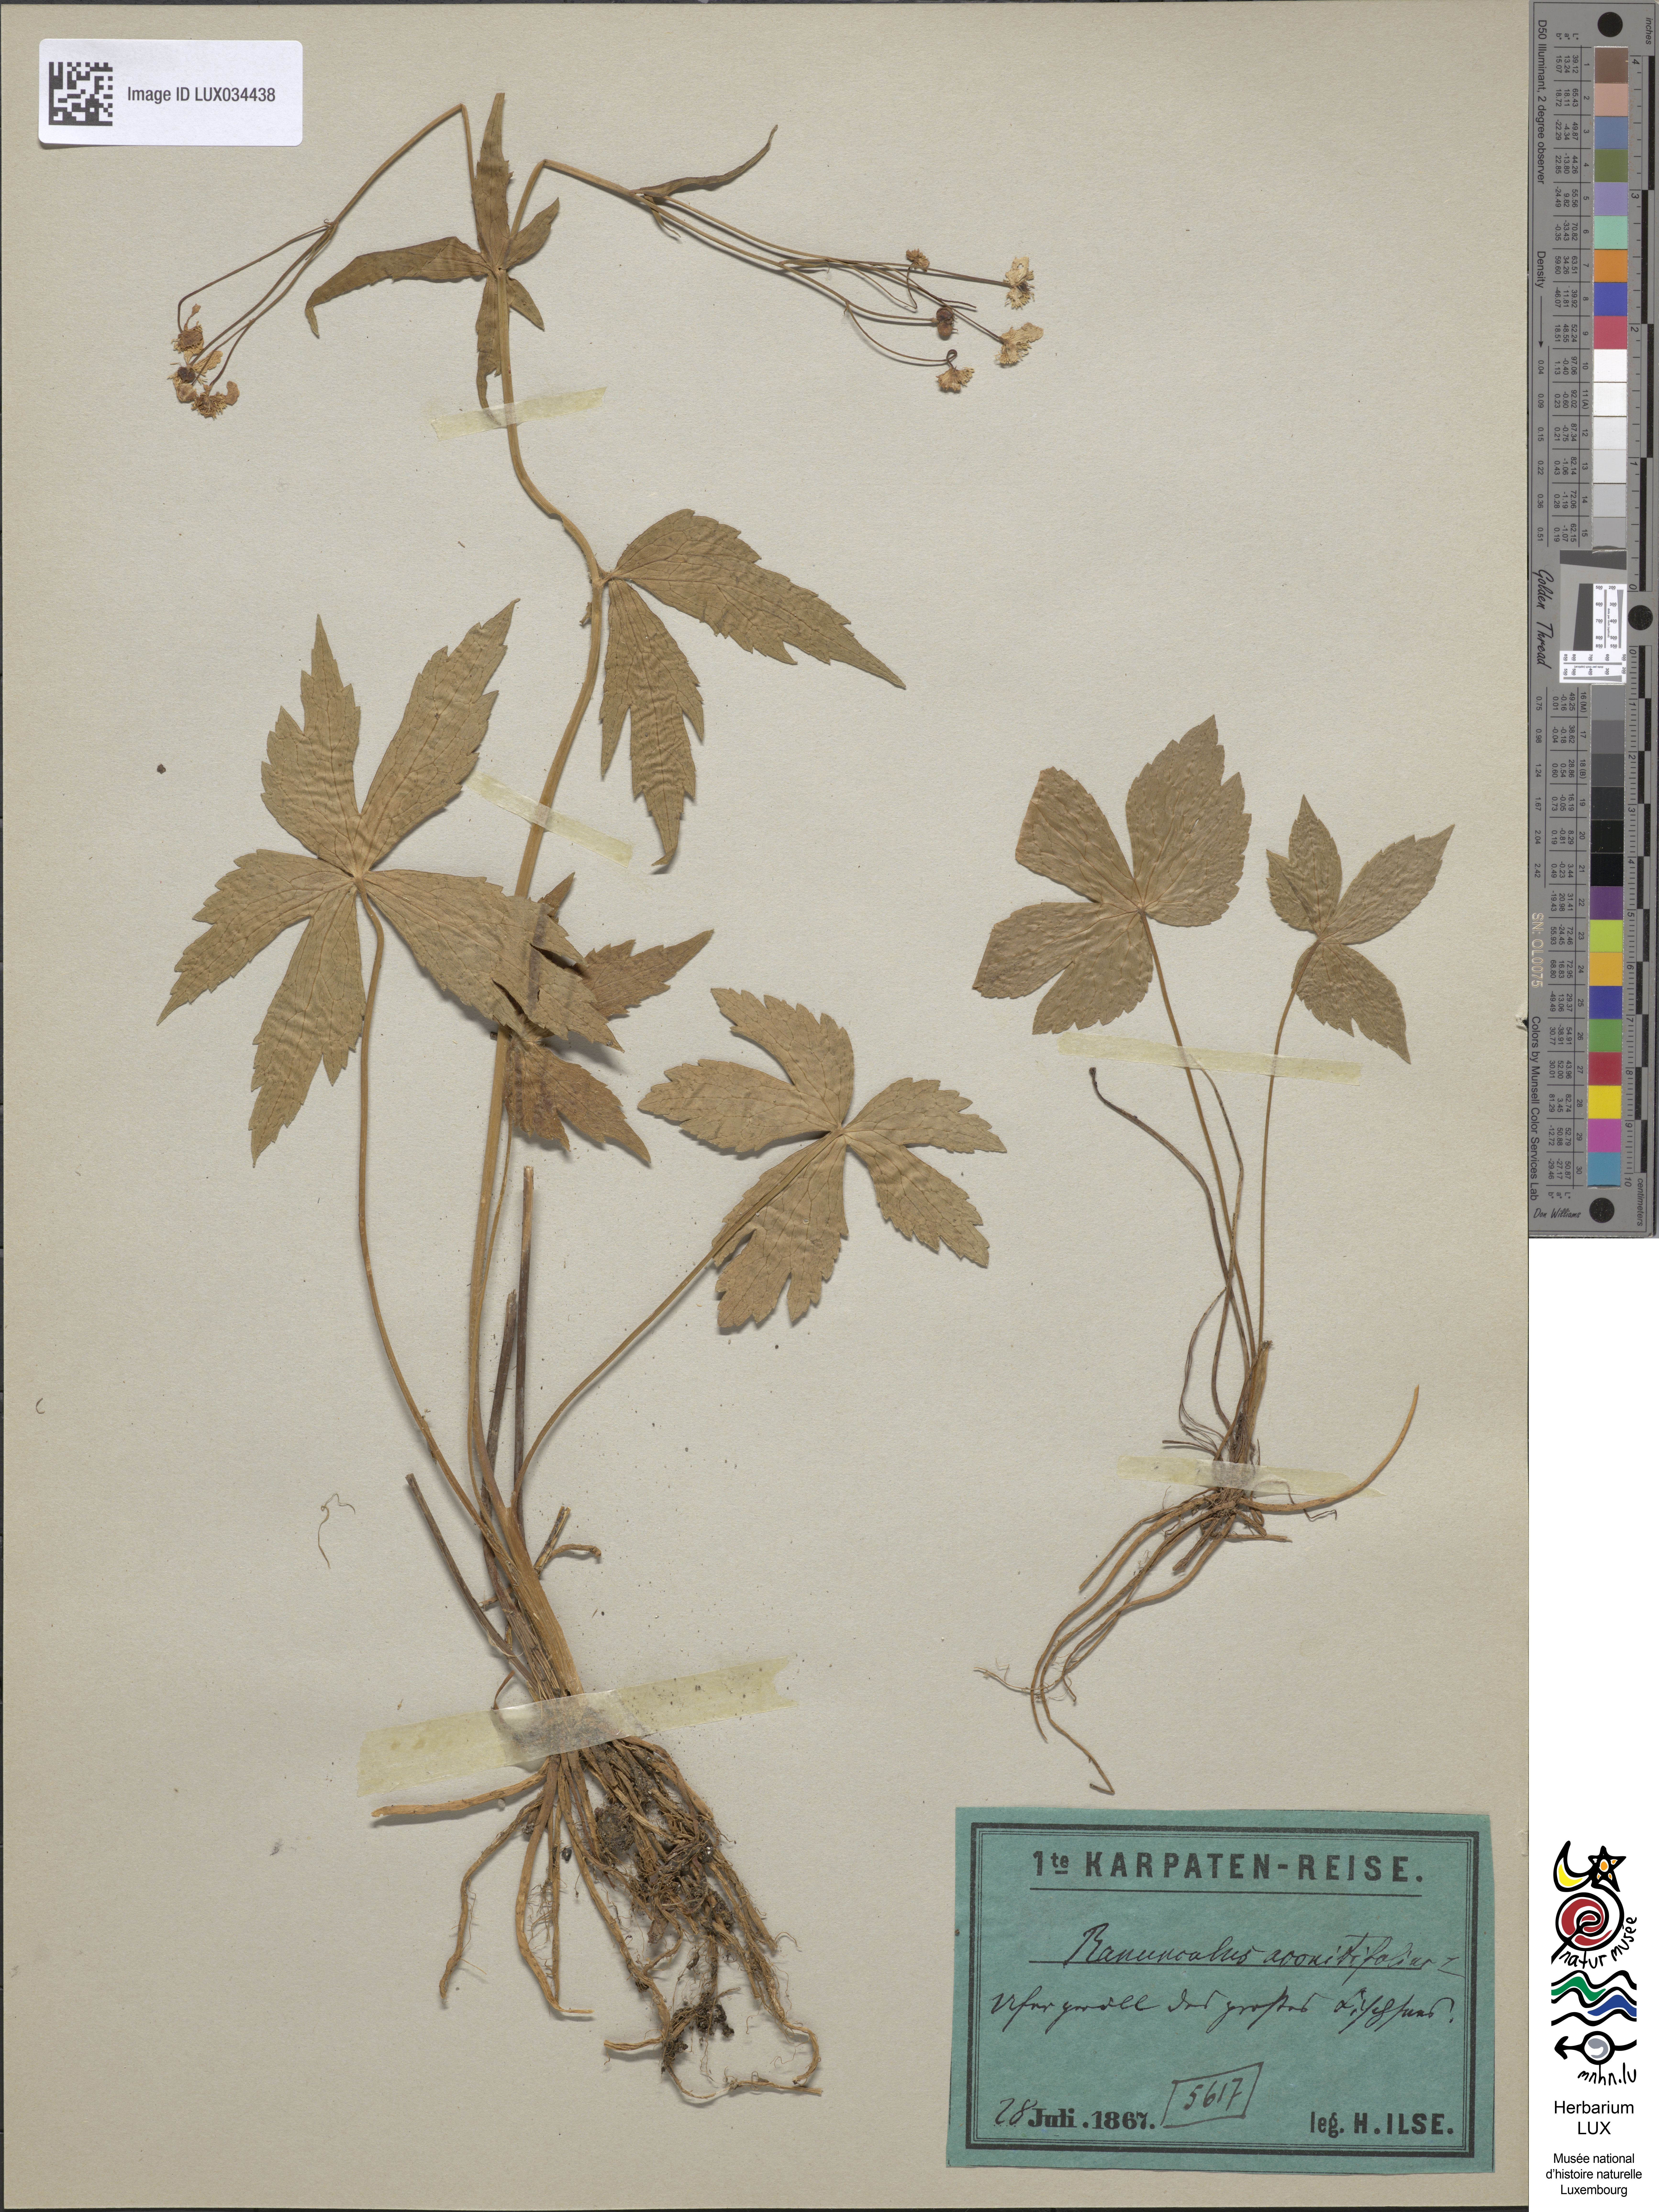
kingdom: Plantae
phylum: Tracheophyta
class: Magnoliopsida
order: Ranunculales
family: Ranunculaceae
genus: Ranunculus
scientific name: Ranunculus aconitifolius
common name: Aconite-leaved buttercup
